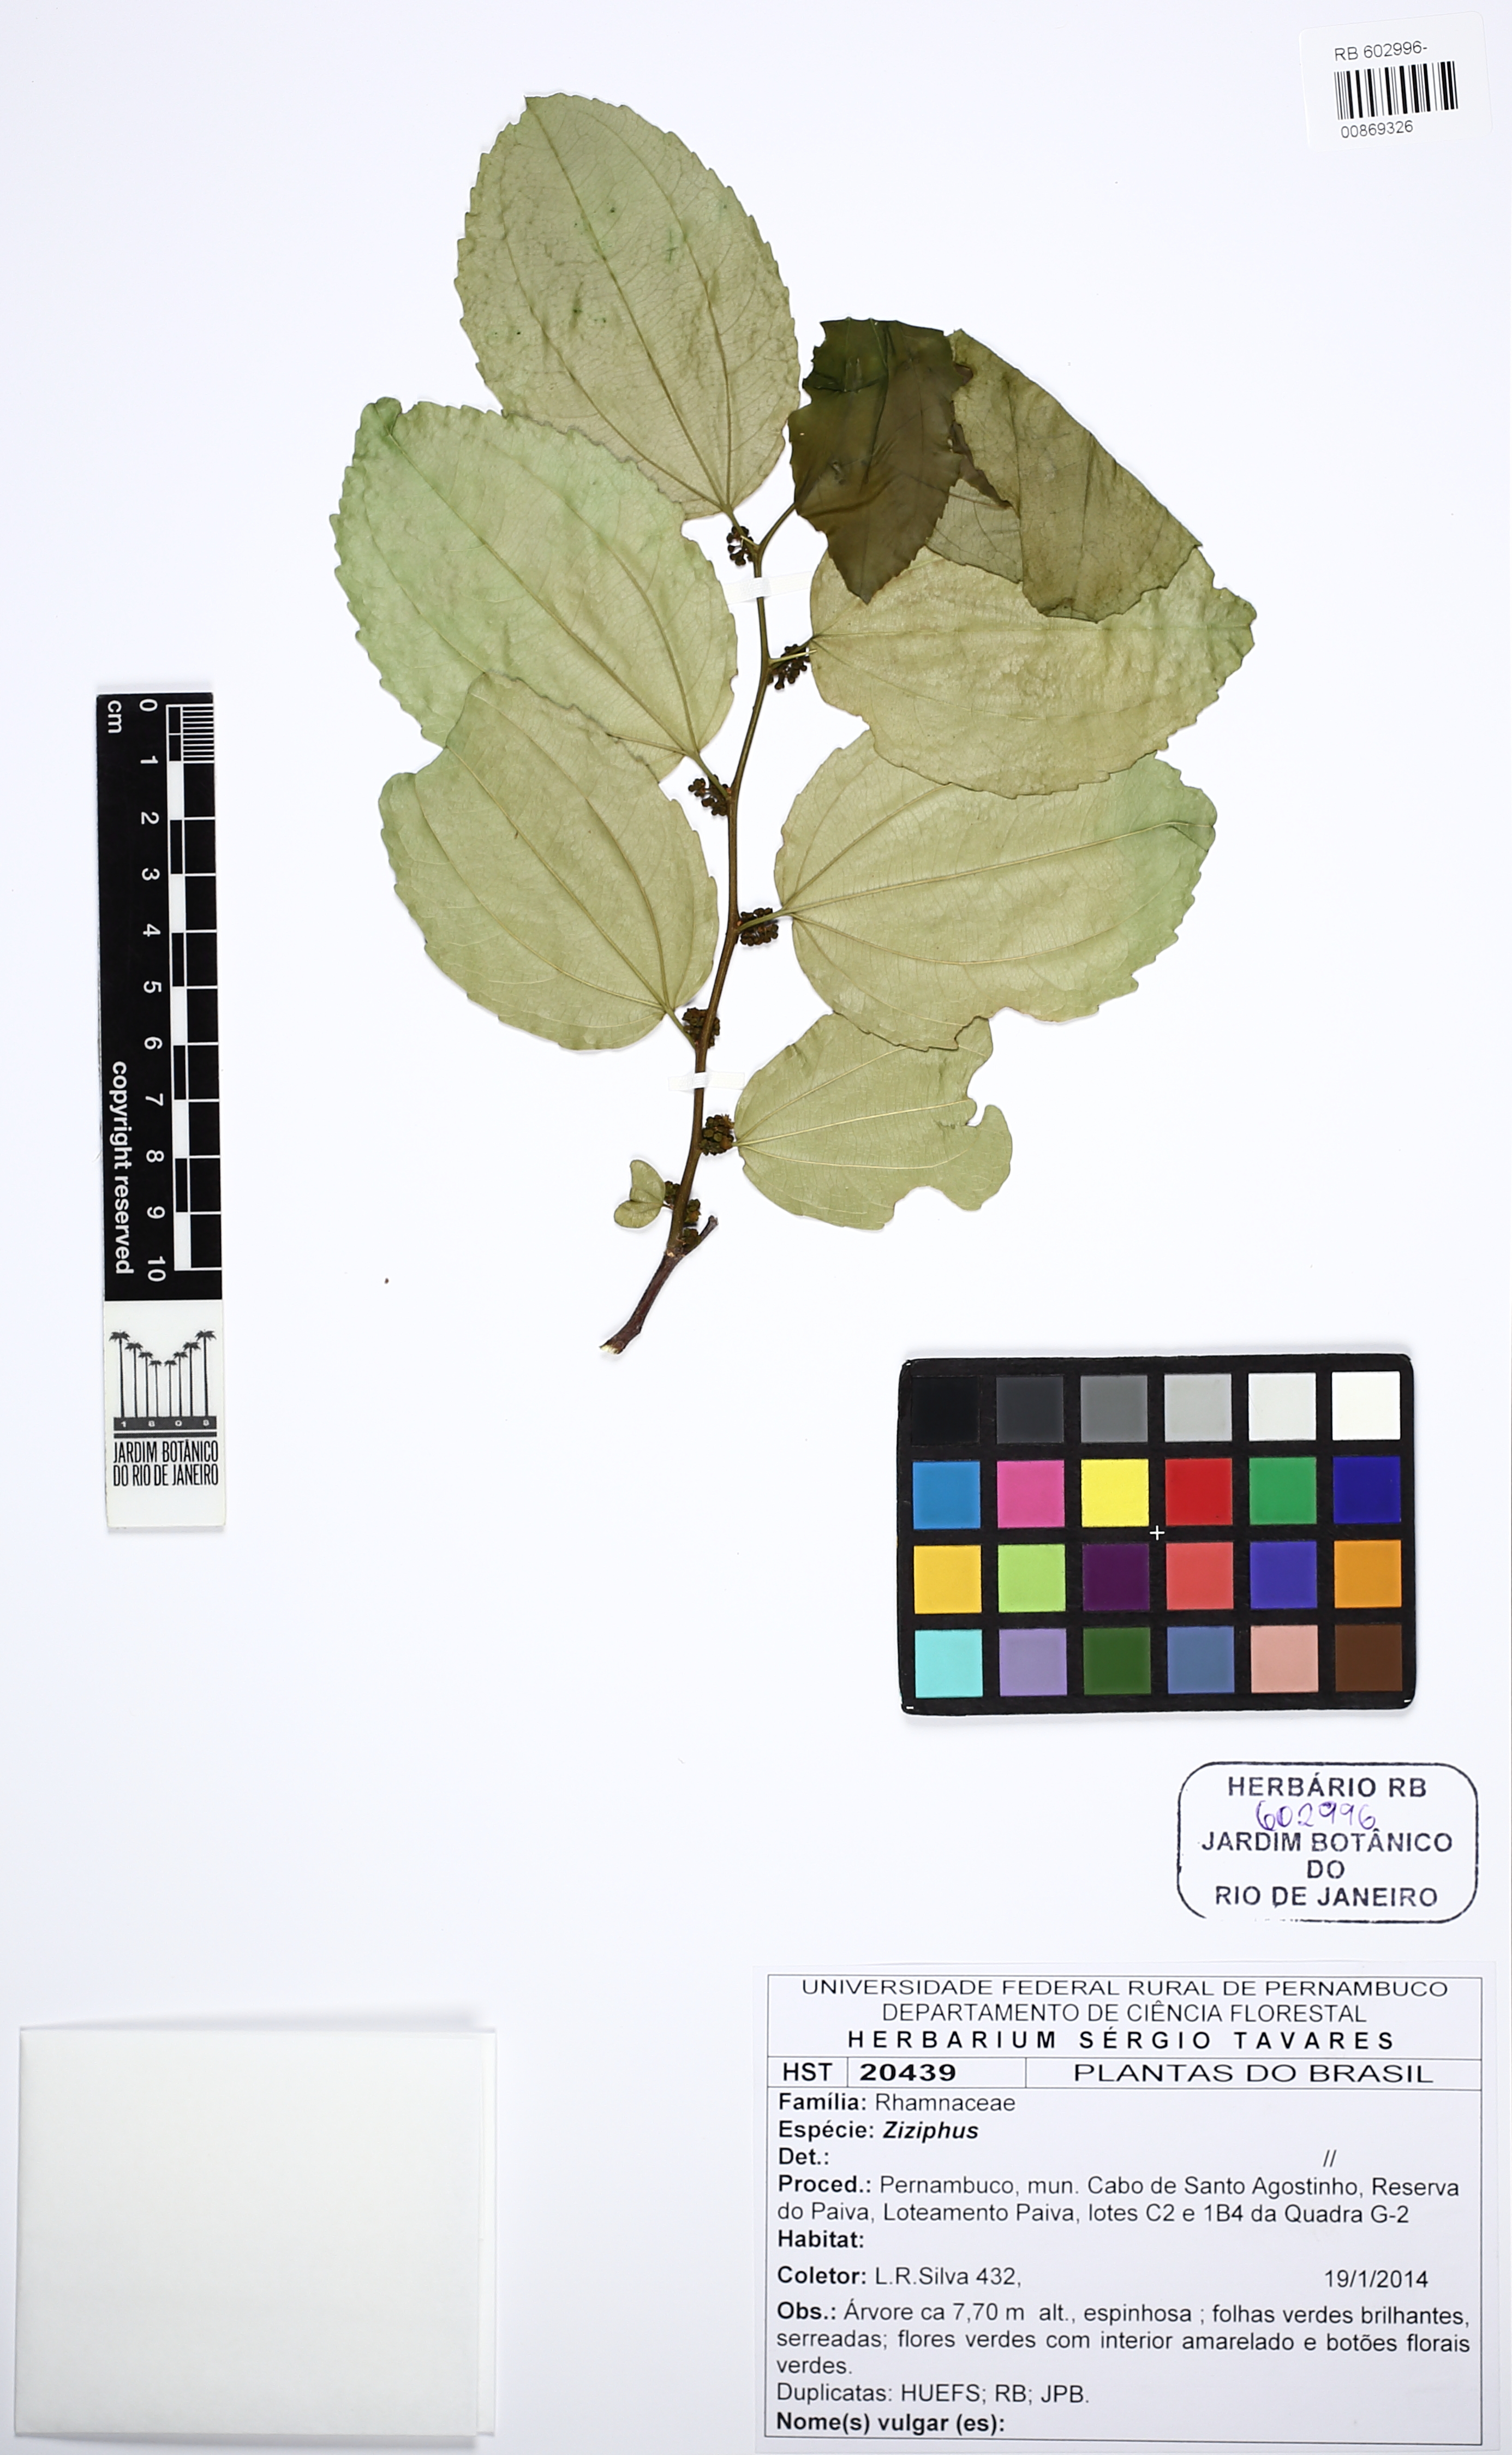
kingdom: Plantae
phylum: Tracheophyta
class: Magnoliopsida
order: Rosales
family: Rhamnaceae
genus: Ziziphus
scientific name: Ziziphus
